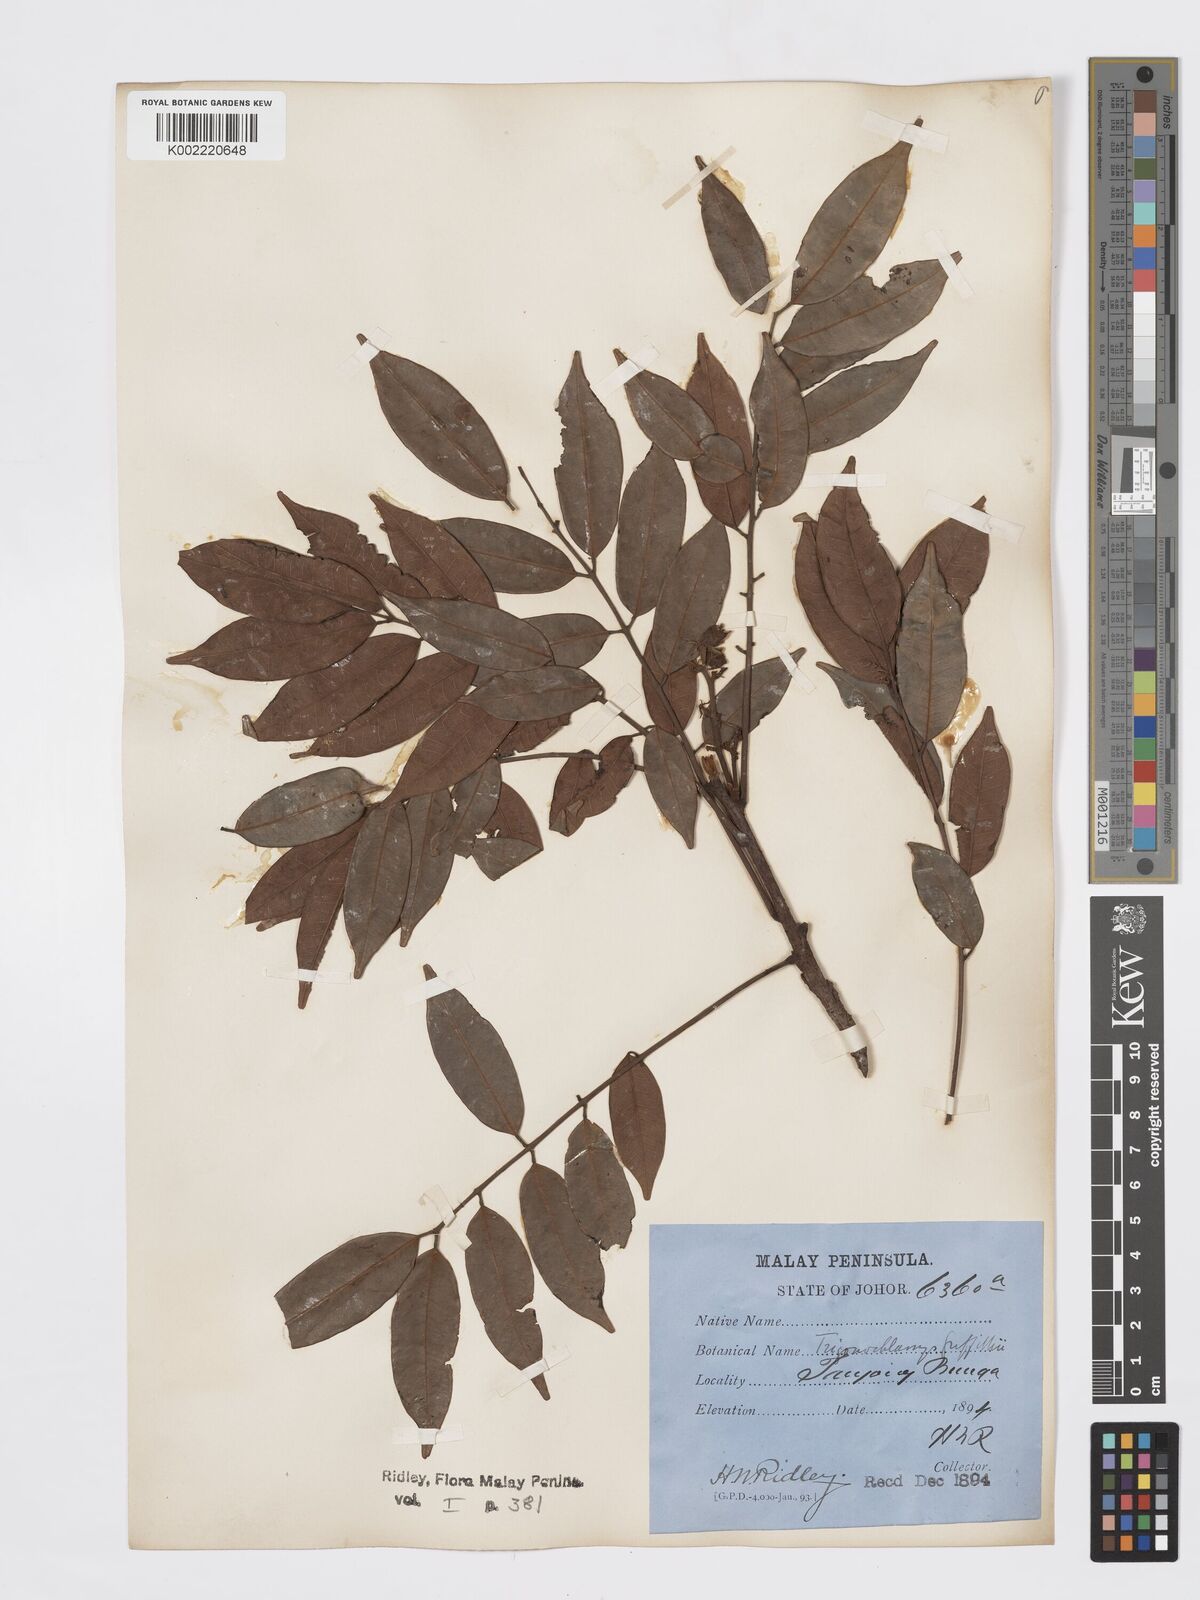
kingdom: Plantae
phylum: Tracheophyta
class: Magnoliopsida
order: Sapindales
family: Burseraceae
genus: Santiria
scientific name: Santiria griffithii
